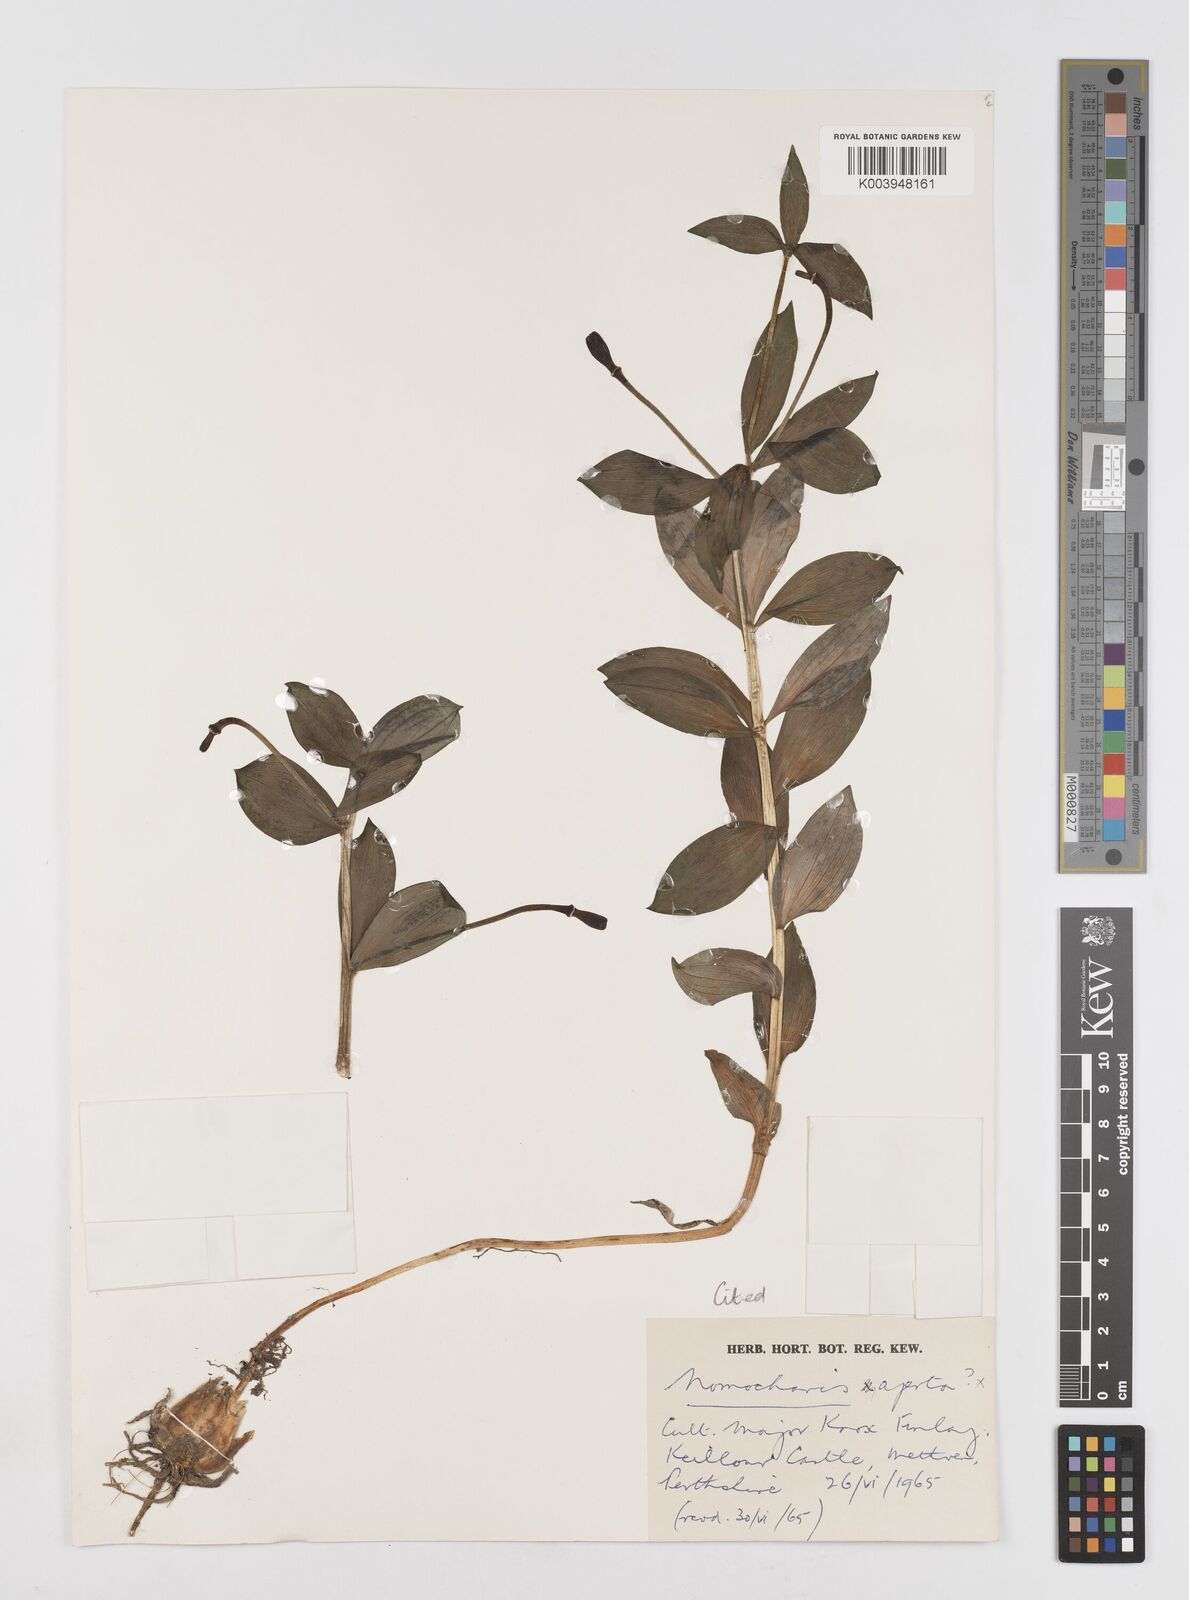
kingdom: Plantae
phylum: Tracheophyta
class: Liliopsida
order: Liliales
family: Liliaceae
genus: Lilium
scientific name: Lilium saluenense
